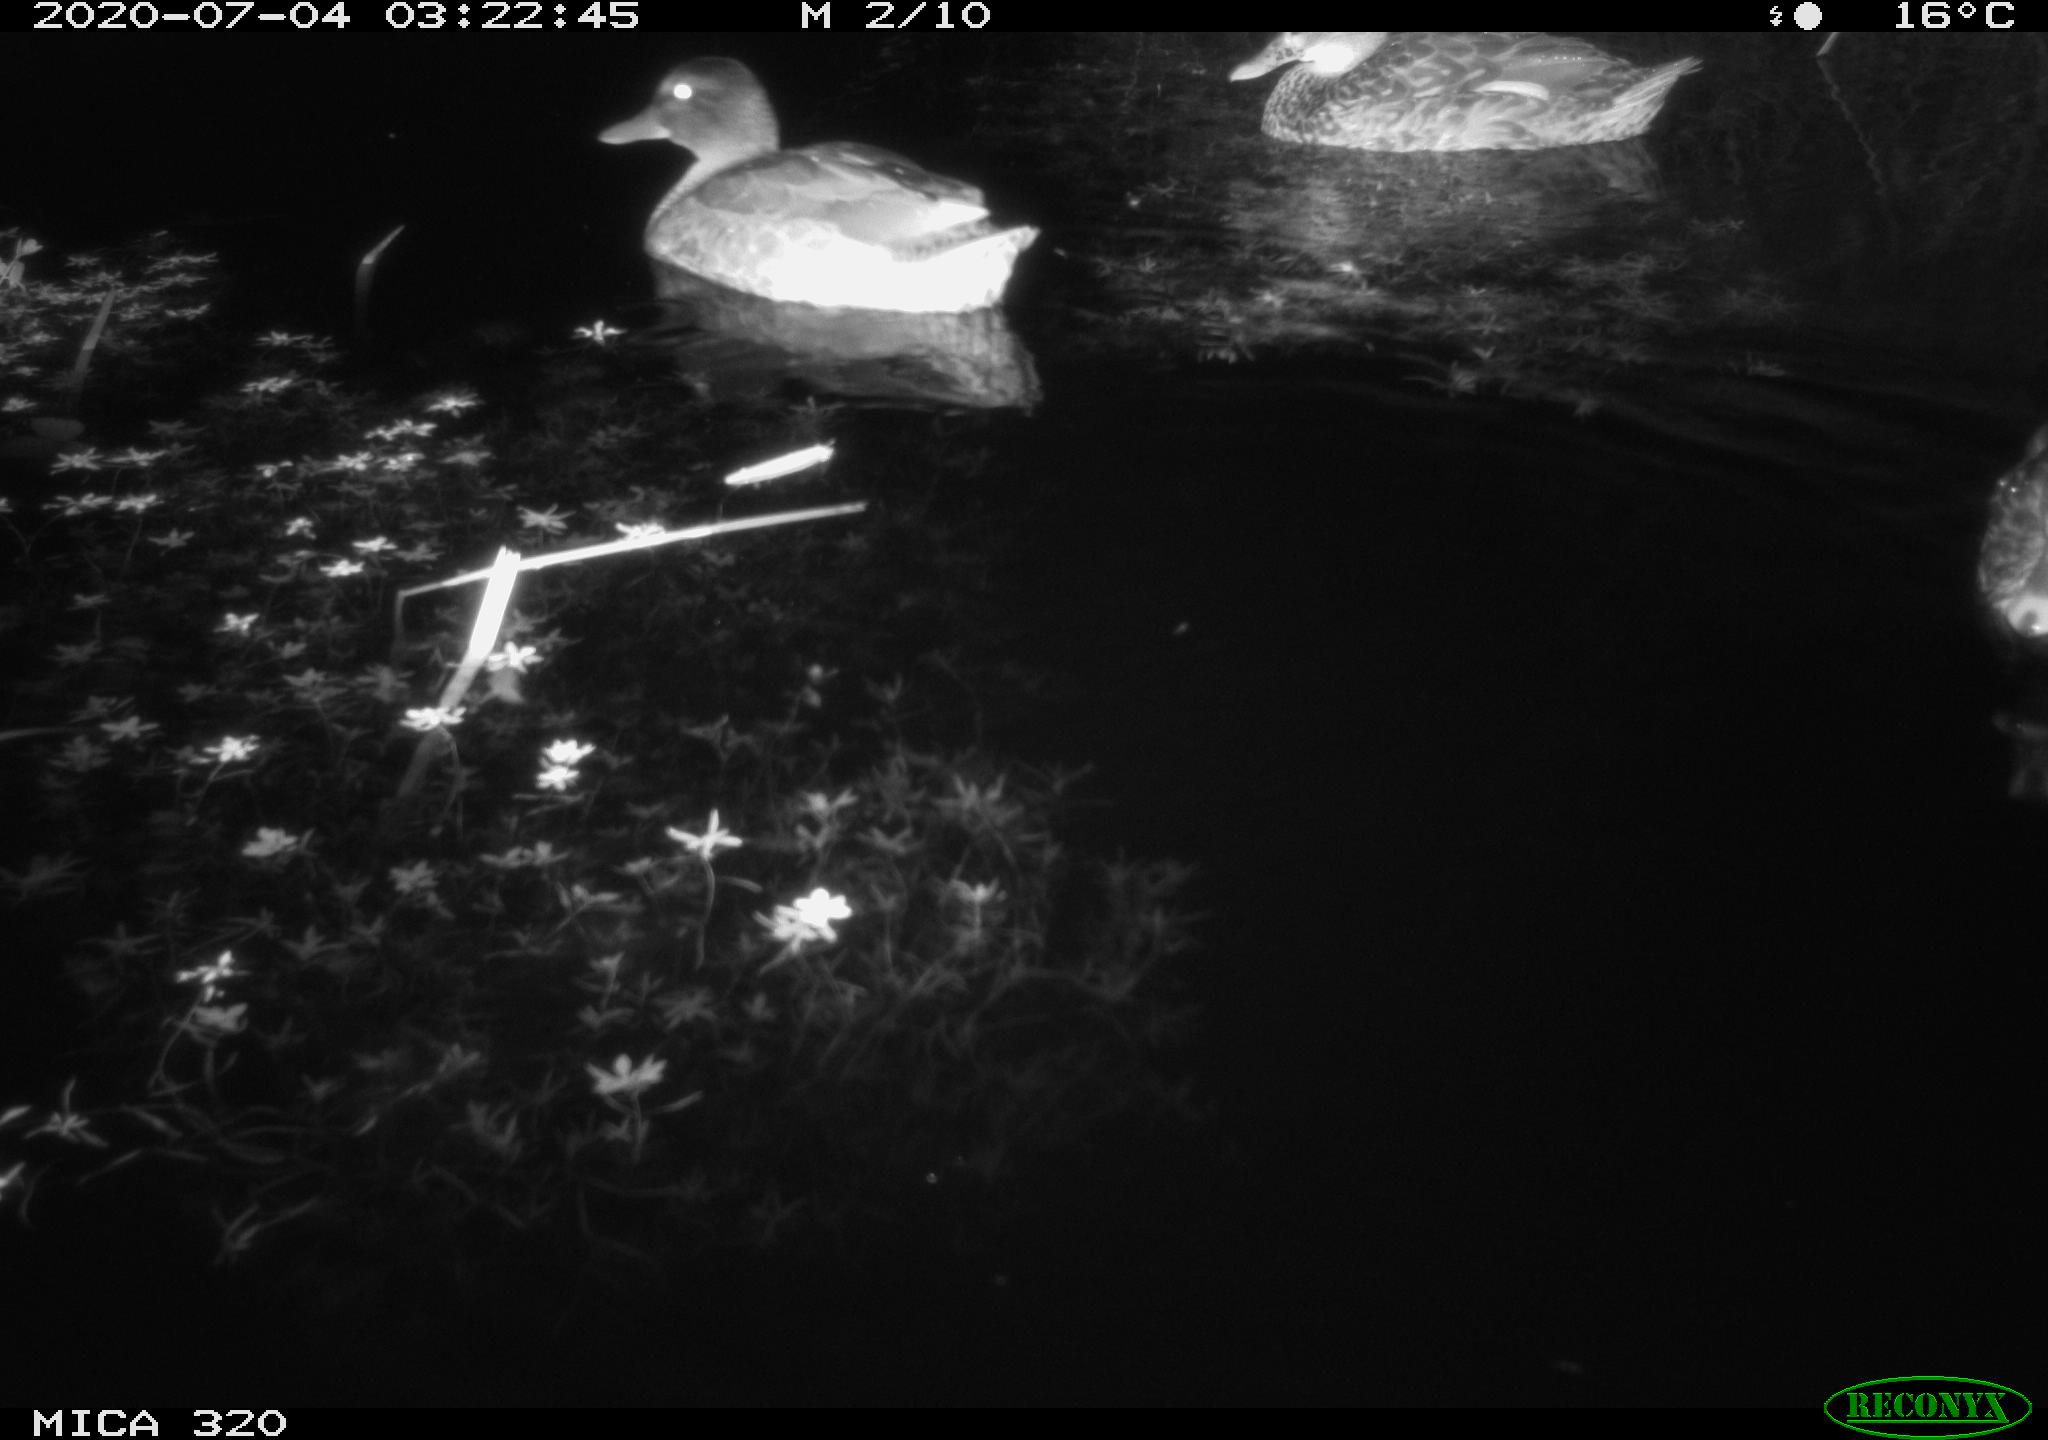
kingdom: Animalia
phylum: Chordata
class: Aves
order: Anseriformes
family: Anatidae
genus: Anas
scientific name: Anas platyrhynchos
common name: Mallard
